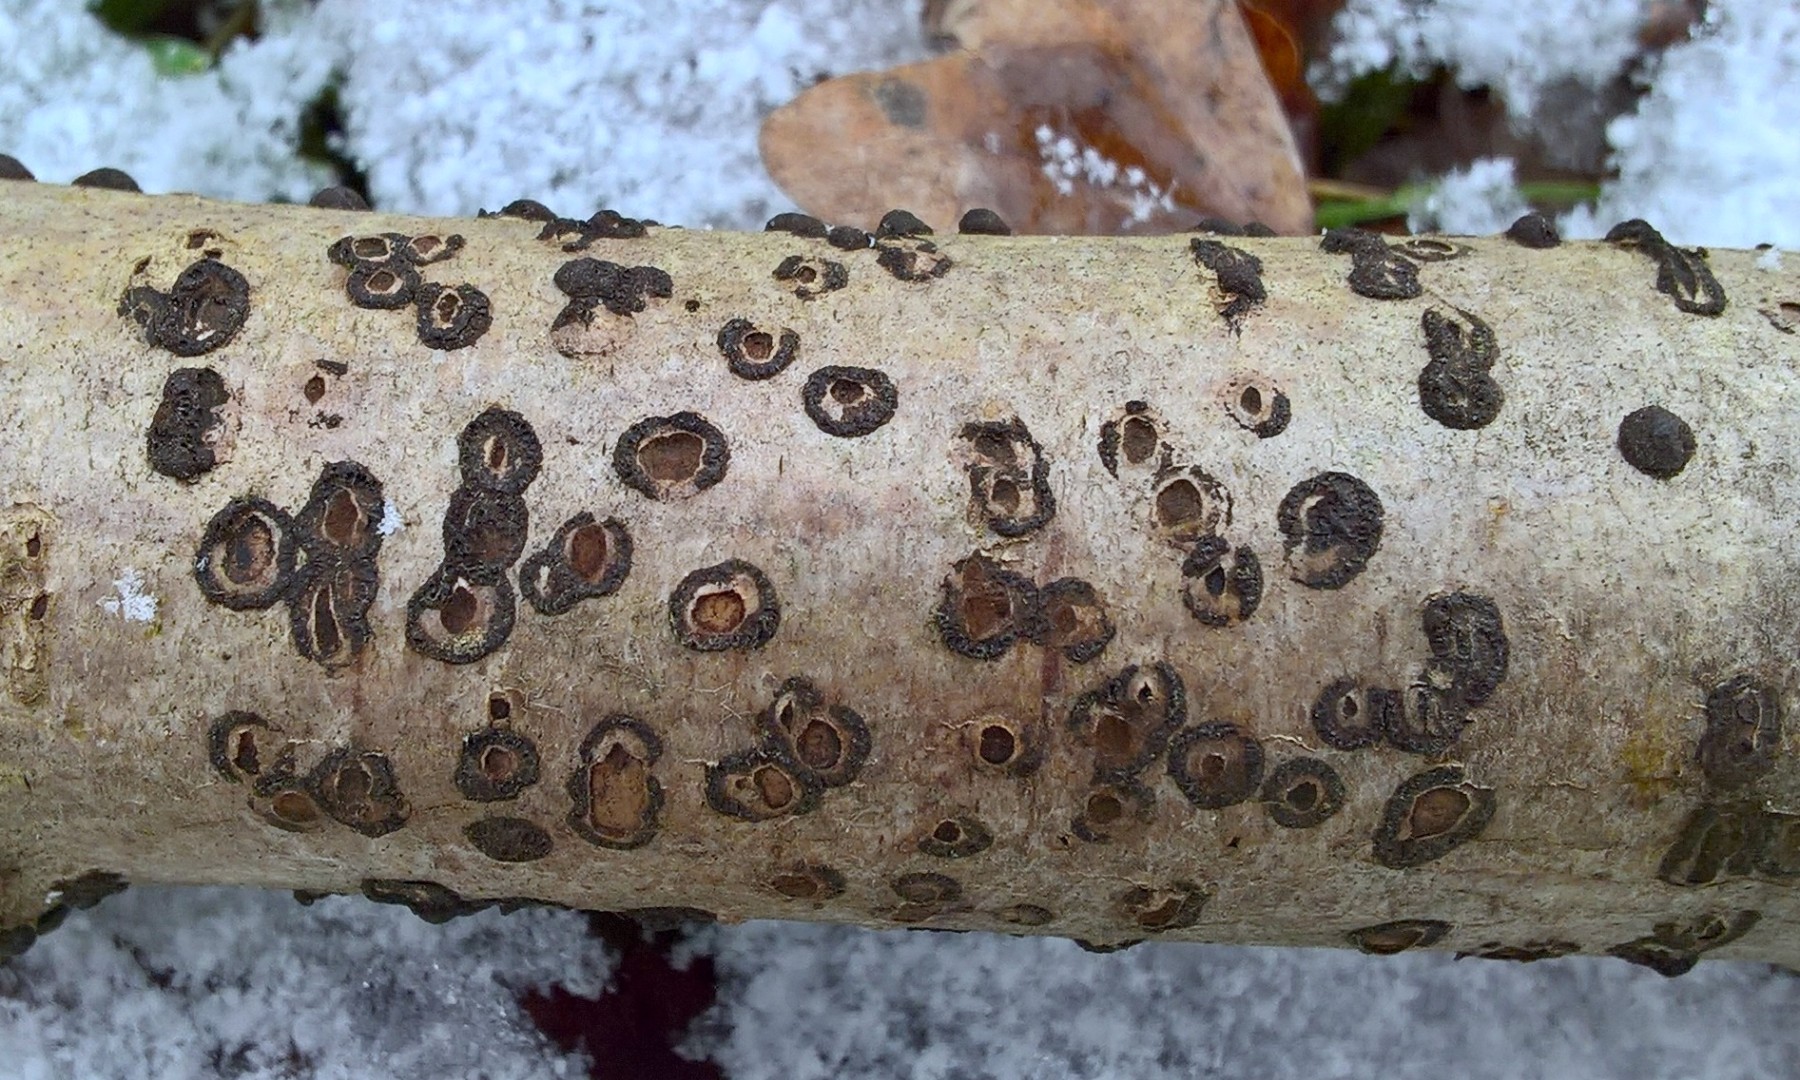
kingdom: Fungi
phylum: Ascomycota
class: Sordariomycetes
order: Xylariales
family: Hypoxylaceae
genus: Hypoxylon
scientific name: Hypoxylon fuscum
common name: kegleformet kulbær
